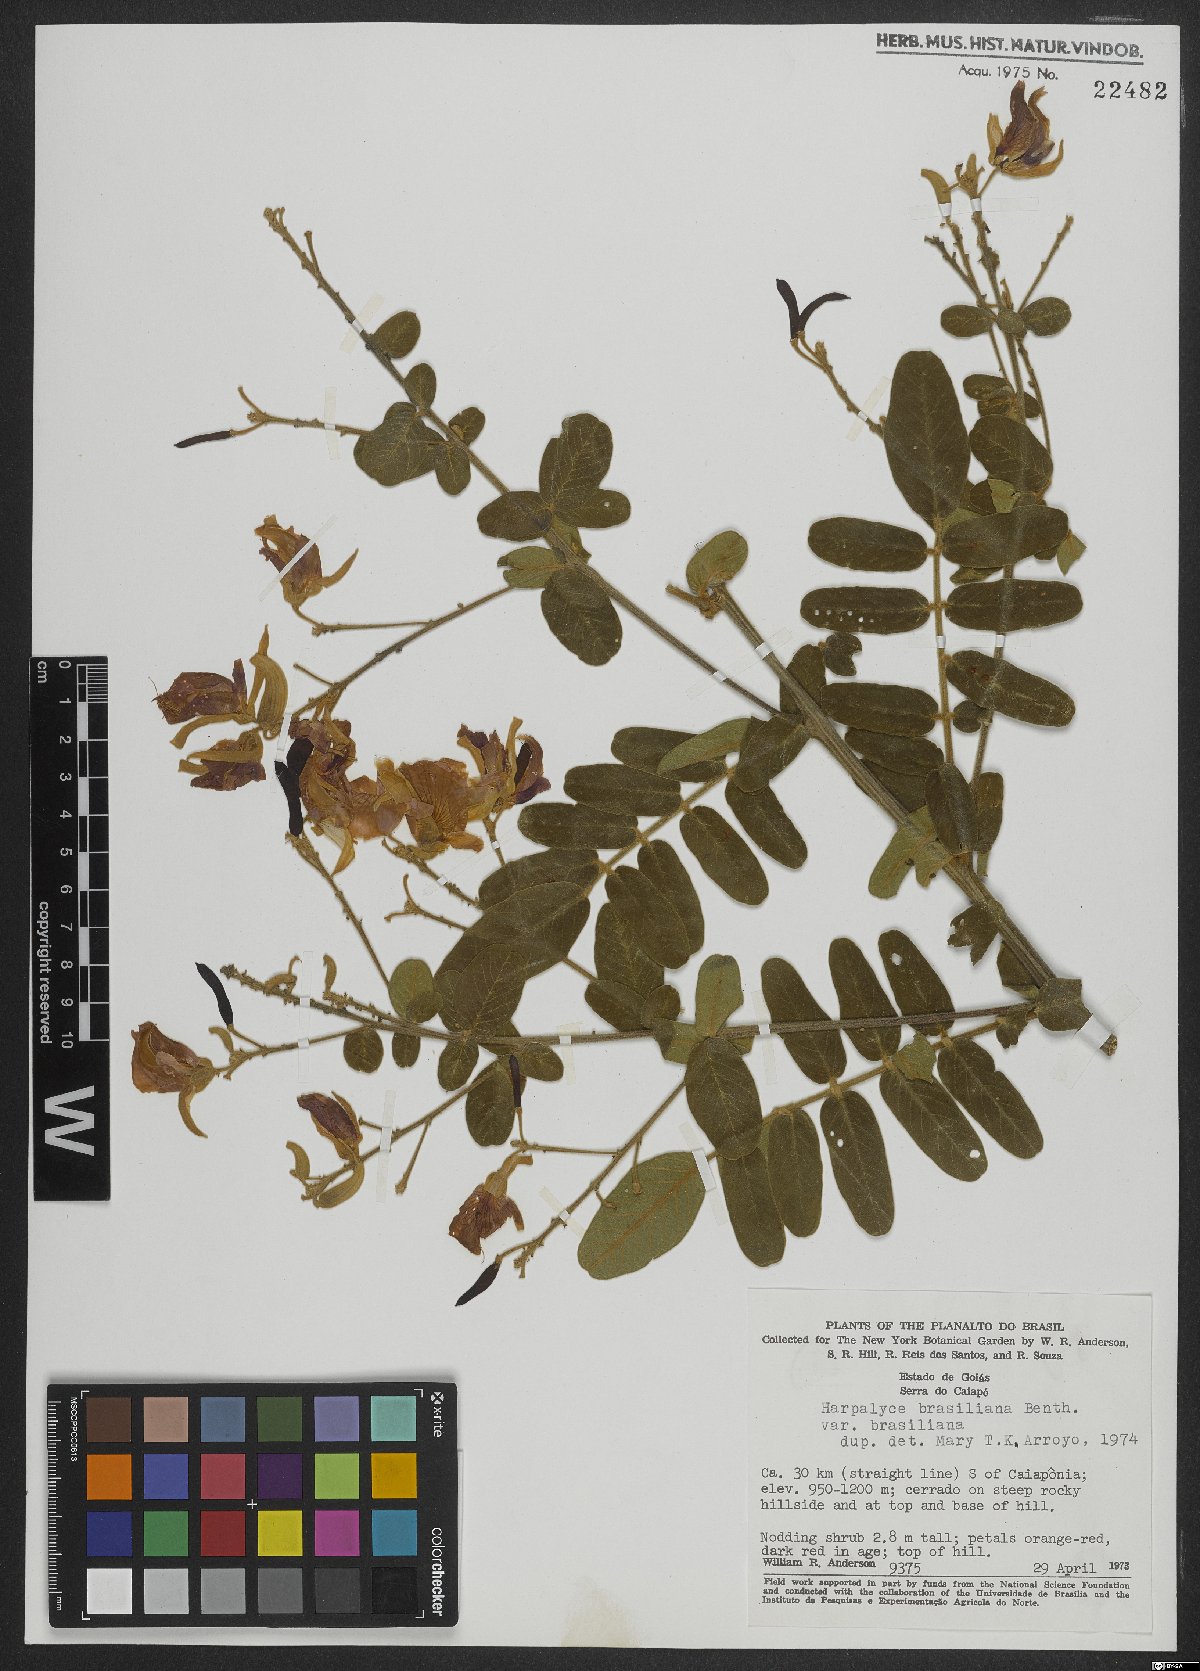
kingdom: Plantae
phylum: Tracheophyta
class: Magnoliopsida
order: Fabales
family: Fabaceae
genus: Harpalyce
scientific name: Harpalyce brasiliana
